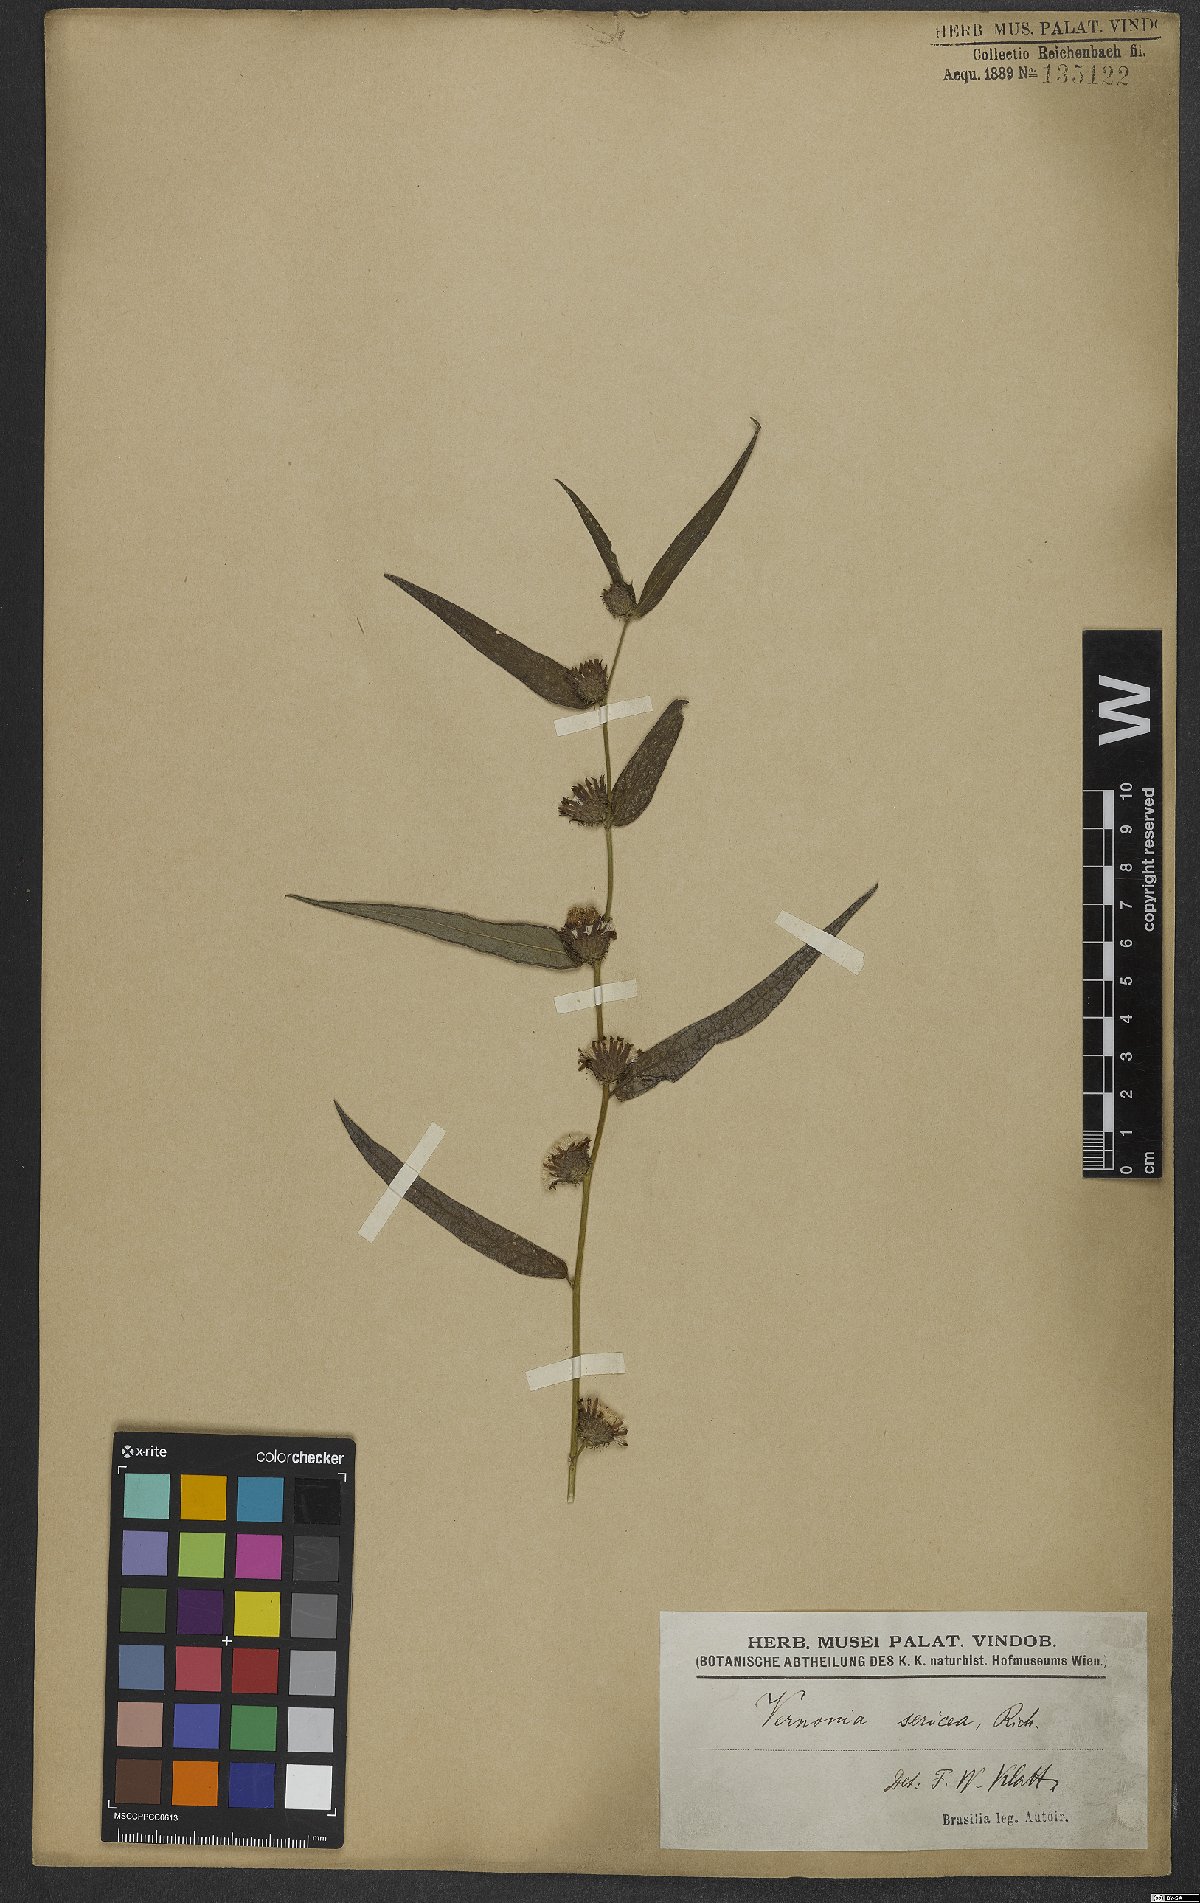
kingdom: Plantae
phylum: Tracheophyta
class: Magnoliopsida
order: Asterales
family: Asteraceae
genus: Lepidaploa
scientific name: Lepidaploa sericea
